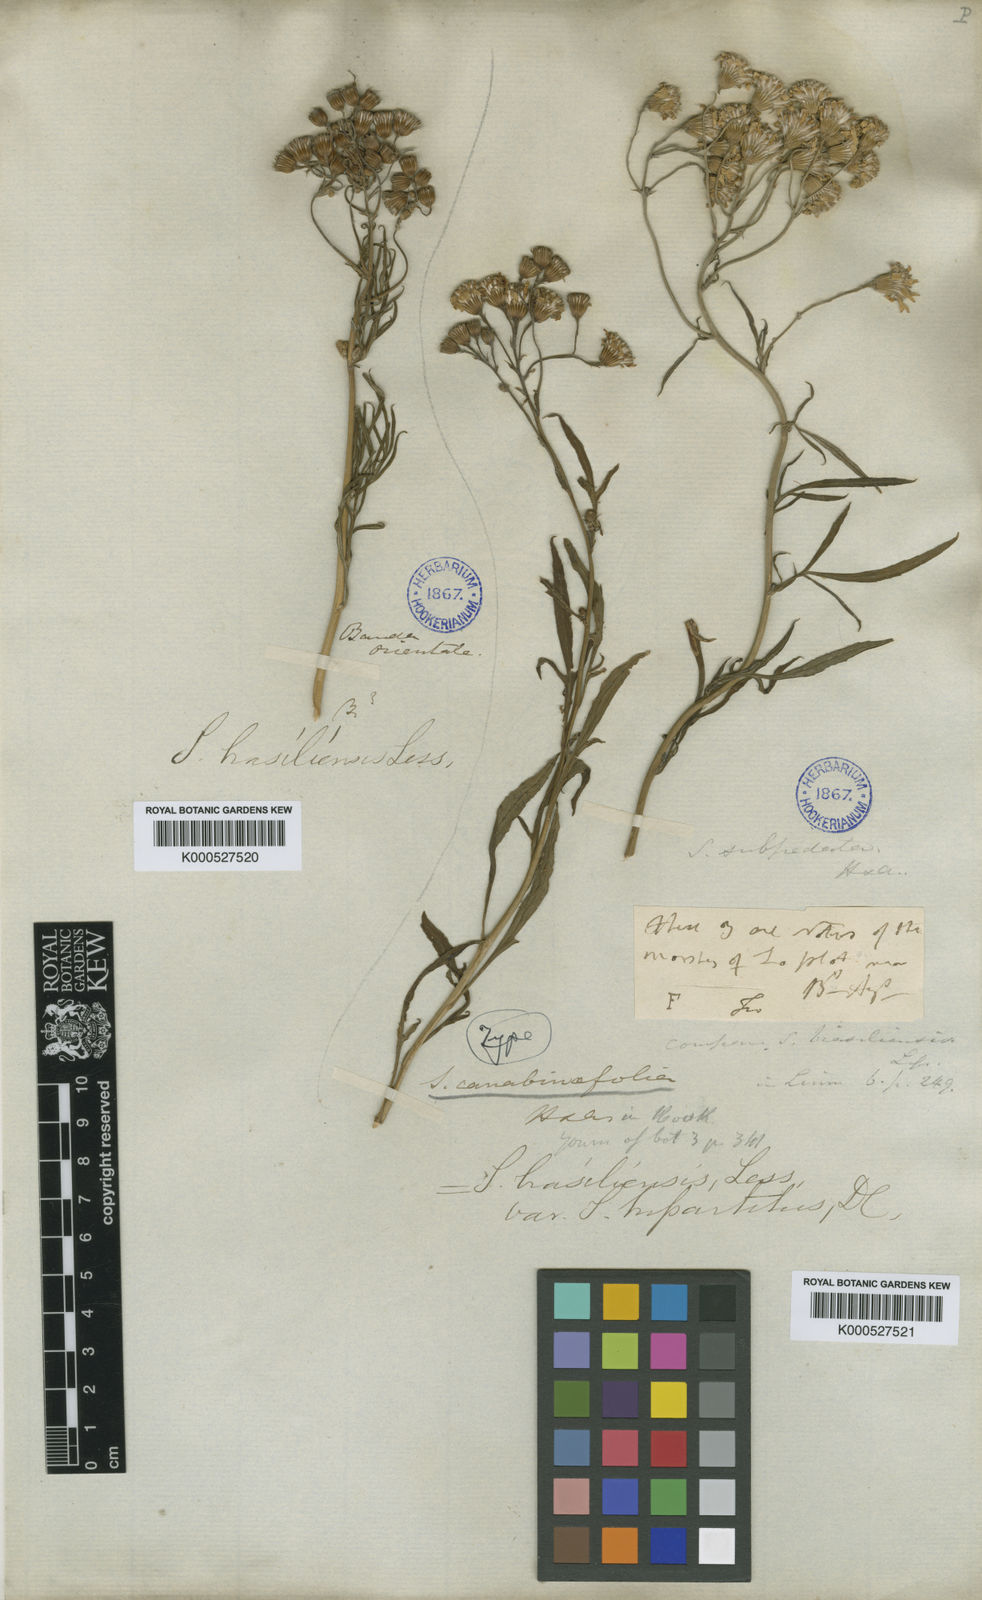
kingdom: Plantae
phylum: Tracheophyta
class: Magnoliopsida
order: Asterales
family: Asteraceae
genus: Senecio
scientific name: Senecio brasiliensis
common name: Hemp-leaf ragwort
